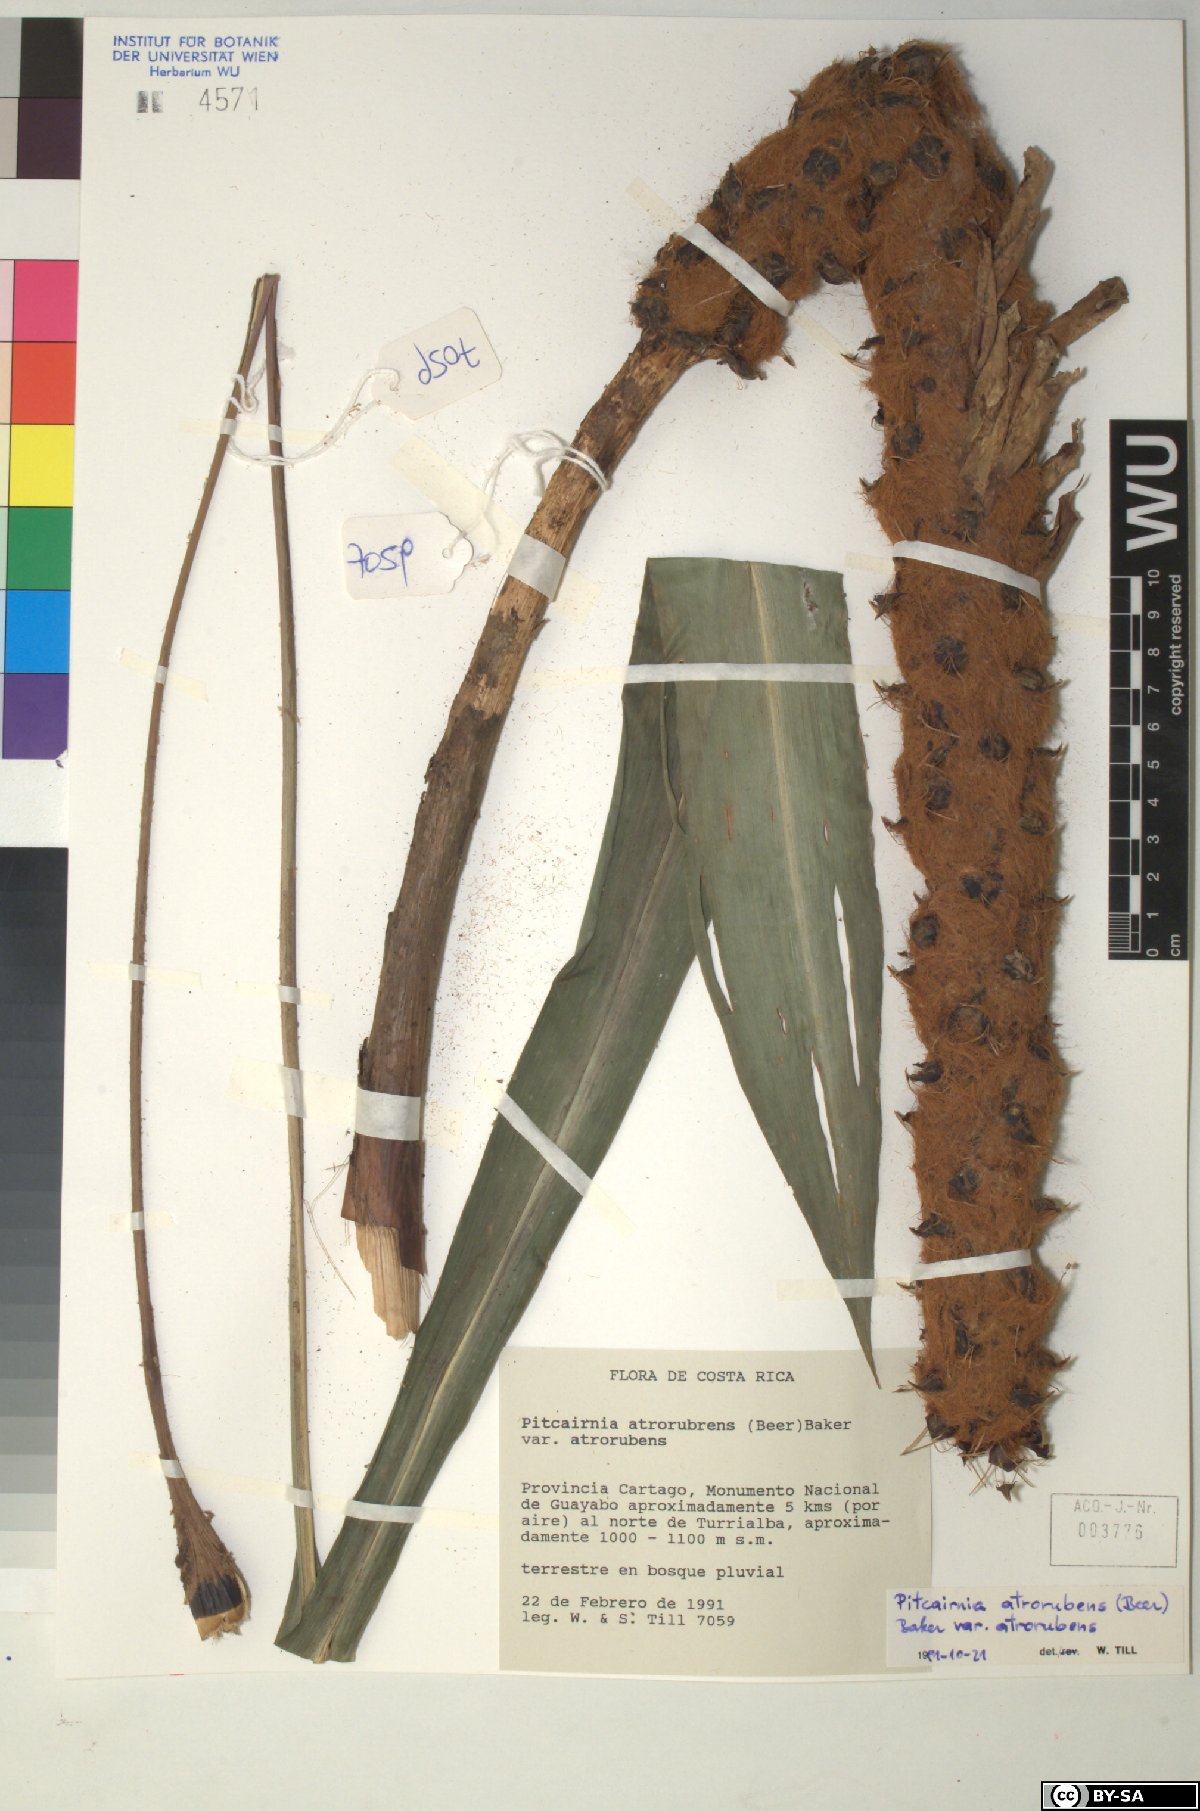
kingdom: Plantae
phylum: Tracheophyta
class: Liliopsida
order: Poales
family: Bromeliaceae
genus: Pitcairnia
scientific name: Pitcairnia atrorubens
